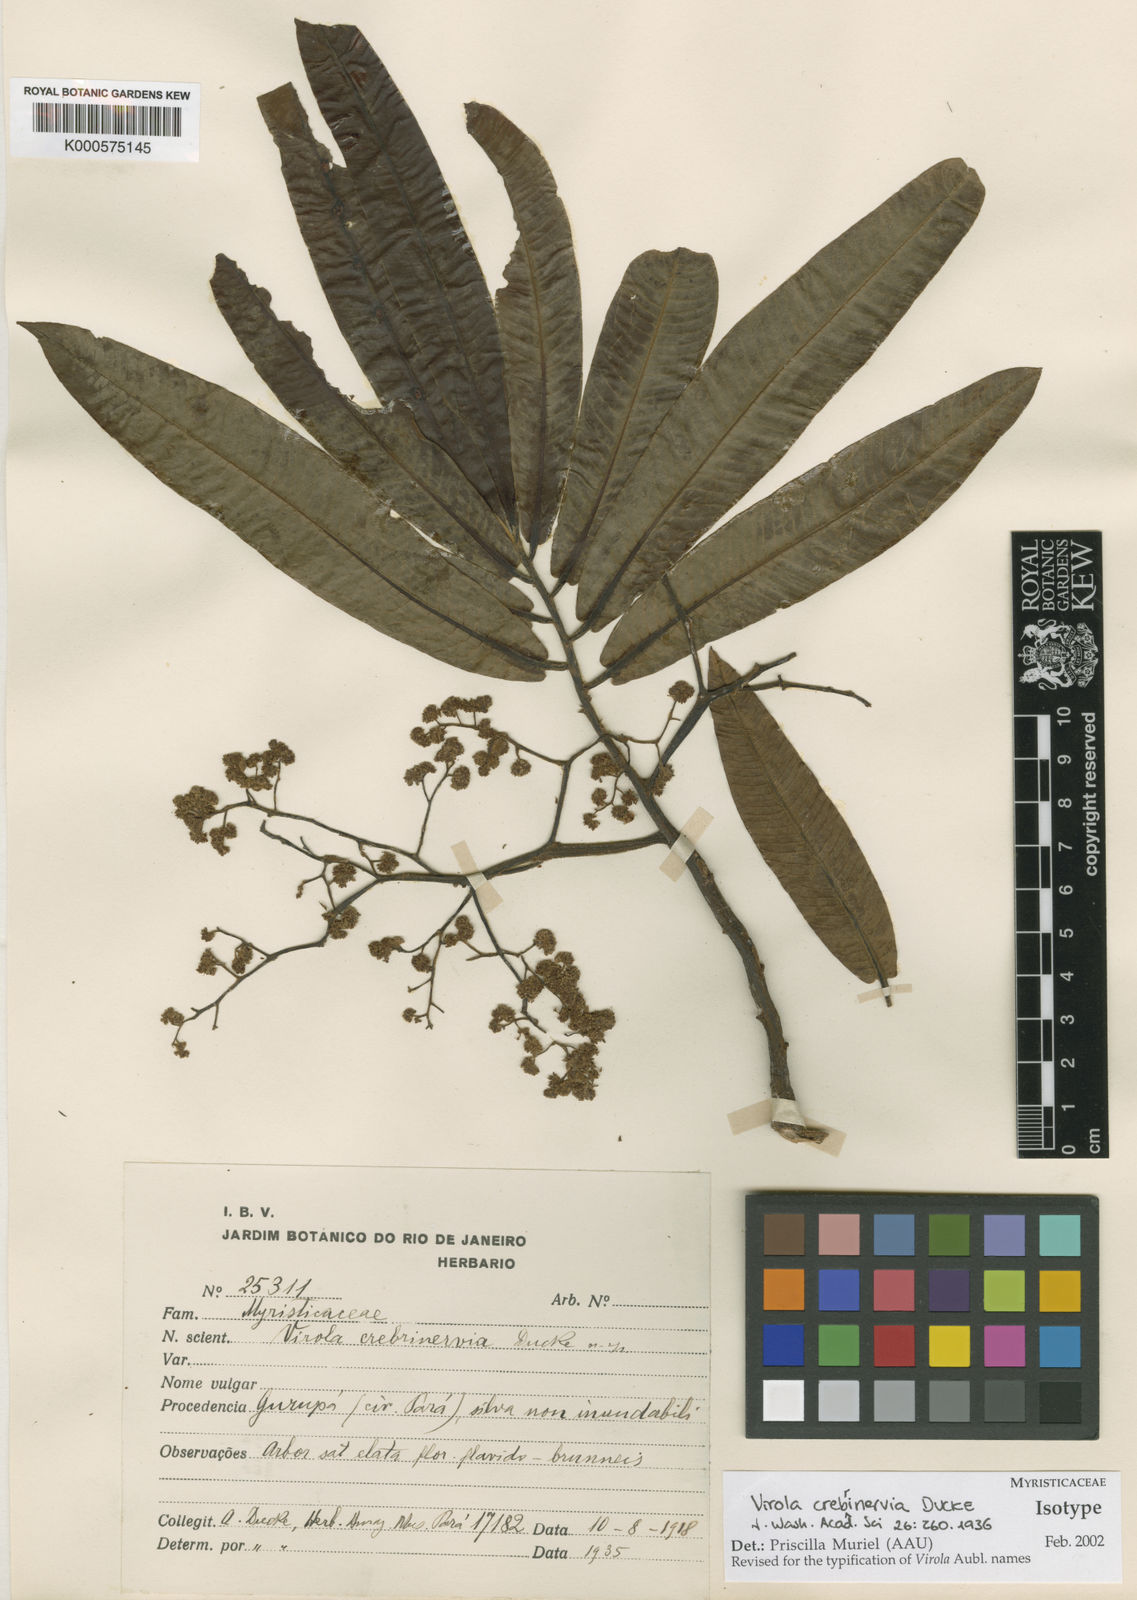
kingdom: Plantae
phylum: Tracheophyta
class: Magnoliopsida
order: Magnoliales
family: Myristicaceae
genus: Virola
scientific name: Virola crebrinervia
